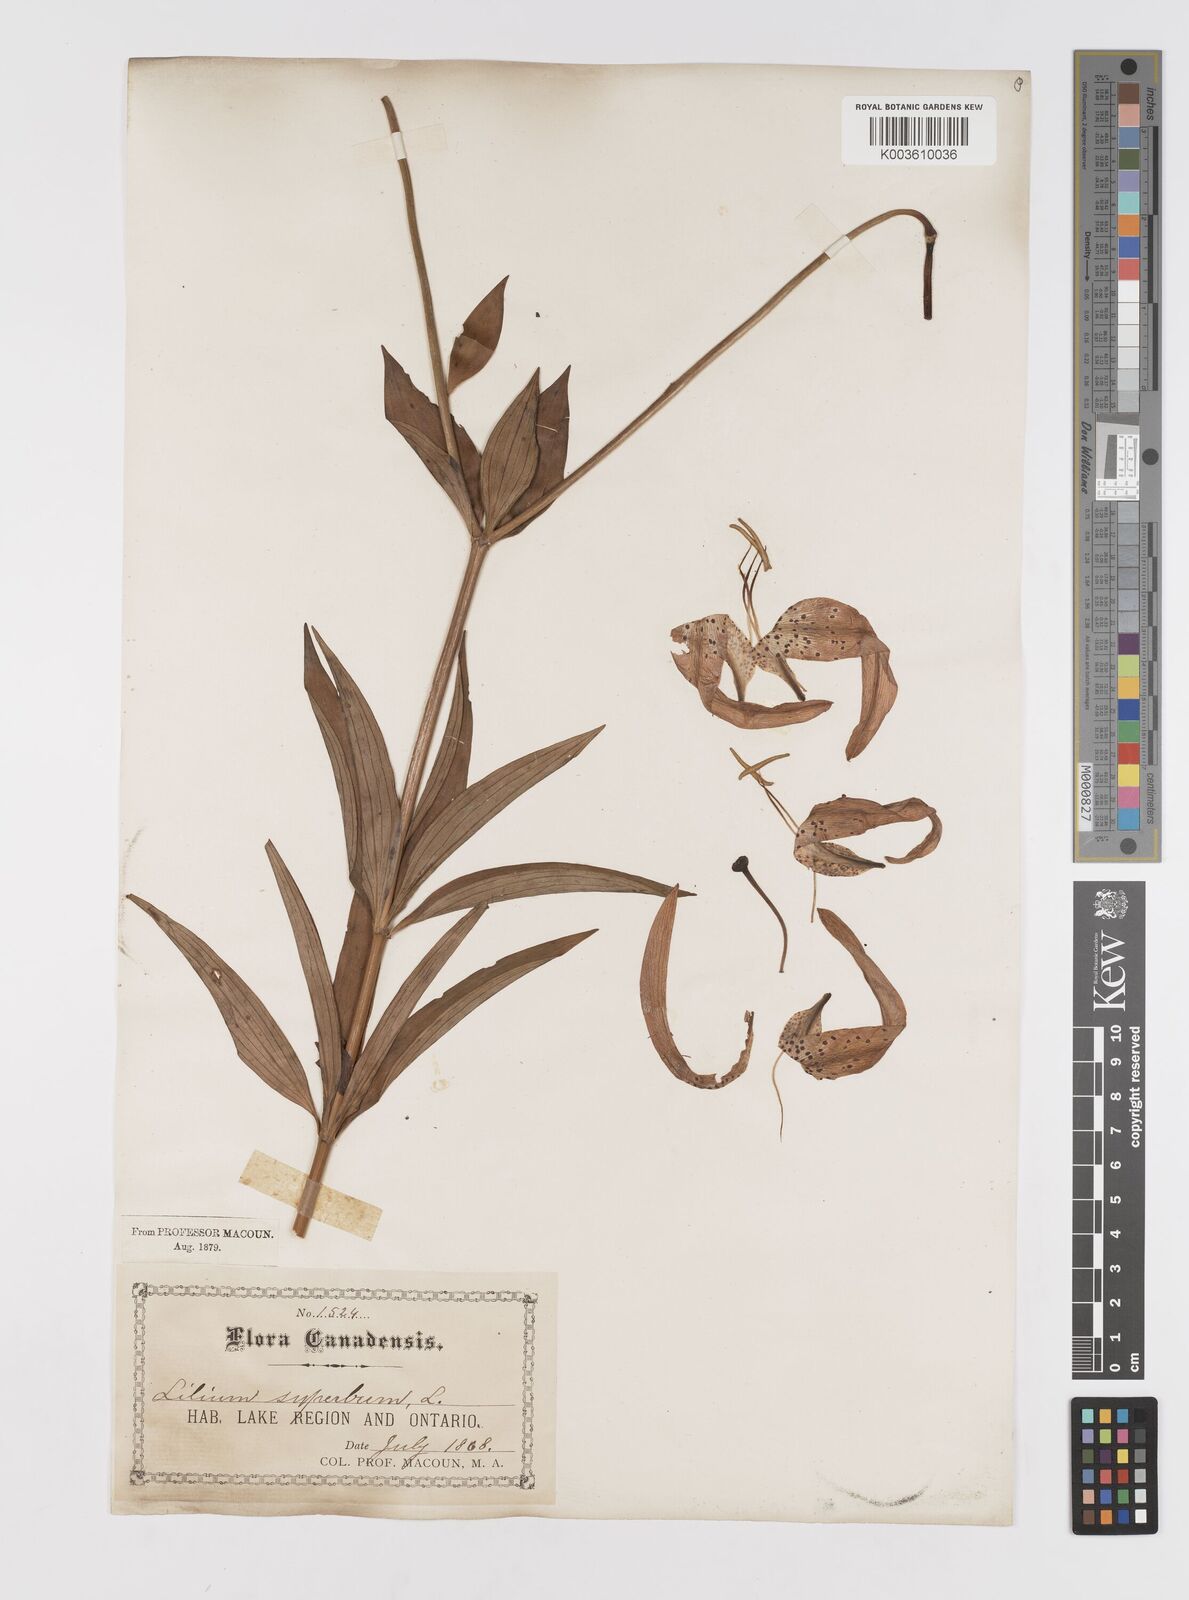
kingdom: Plantae
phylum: Tracheophyta
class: Liliopsida
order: Liliales
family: Liliaceae
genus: Lilium
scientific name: Lilium superbum
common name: American turk's-cap lily
